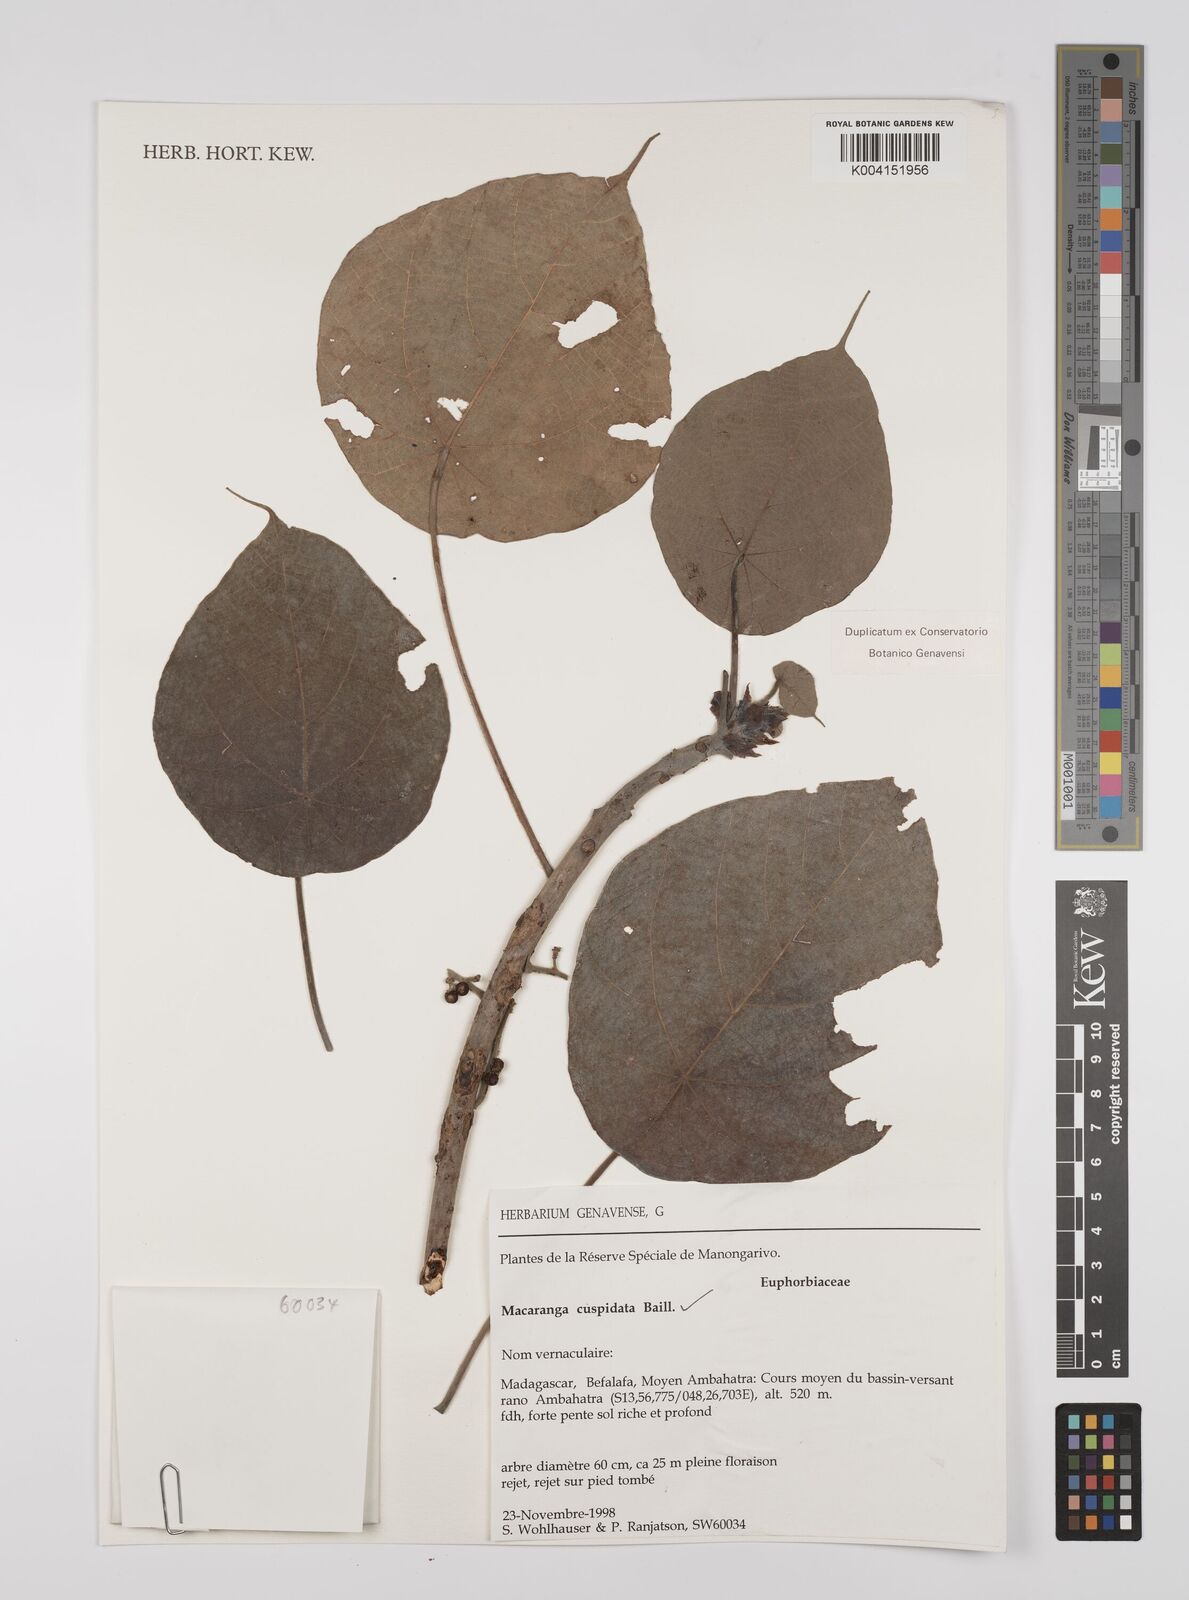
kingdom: Plantae
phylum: Tracheophyta
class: Magnoliopsida
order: Malpighiales
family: Euphorbiaceae
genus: Macaranga
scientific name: Macaranga cuspidata
